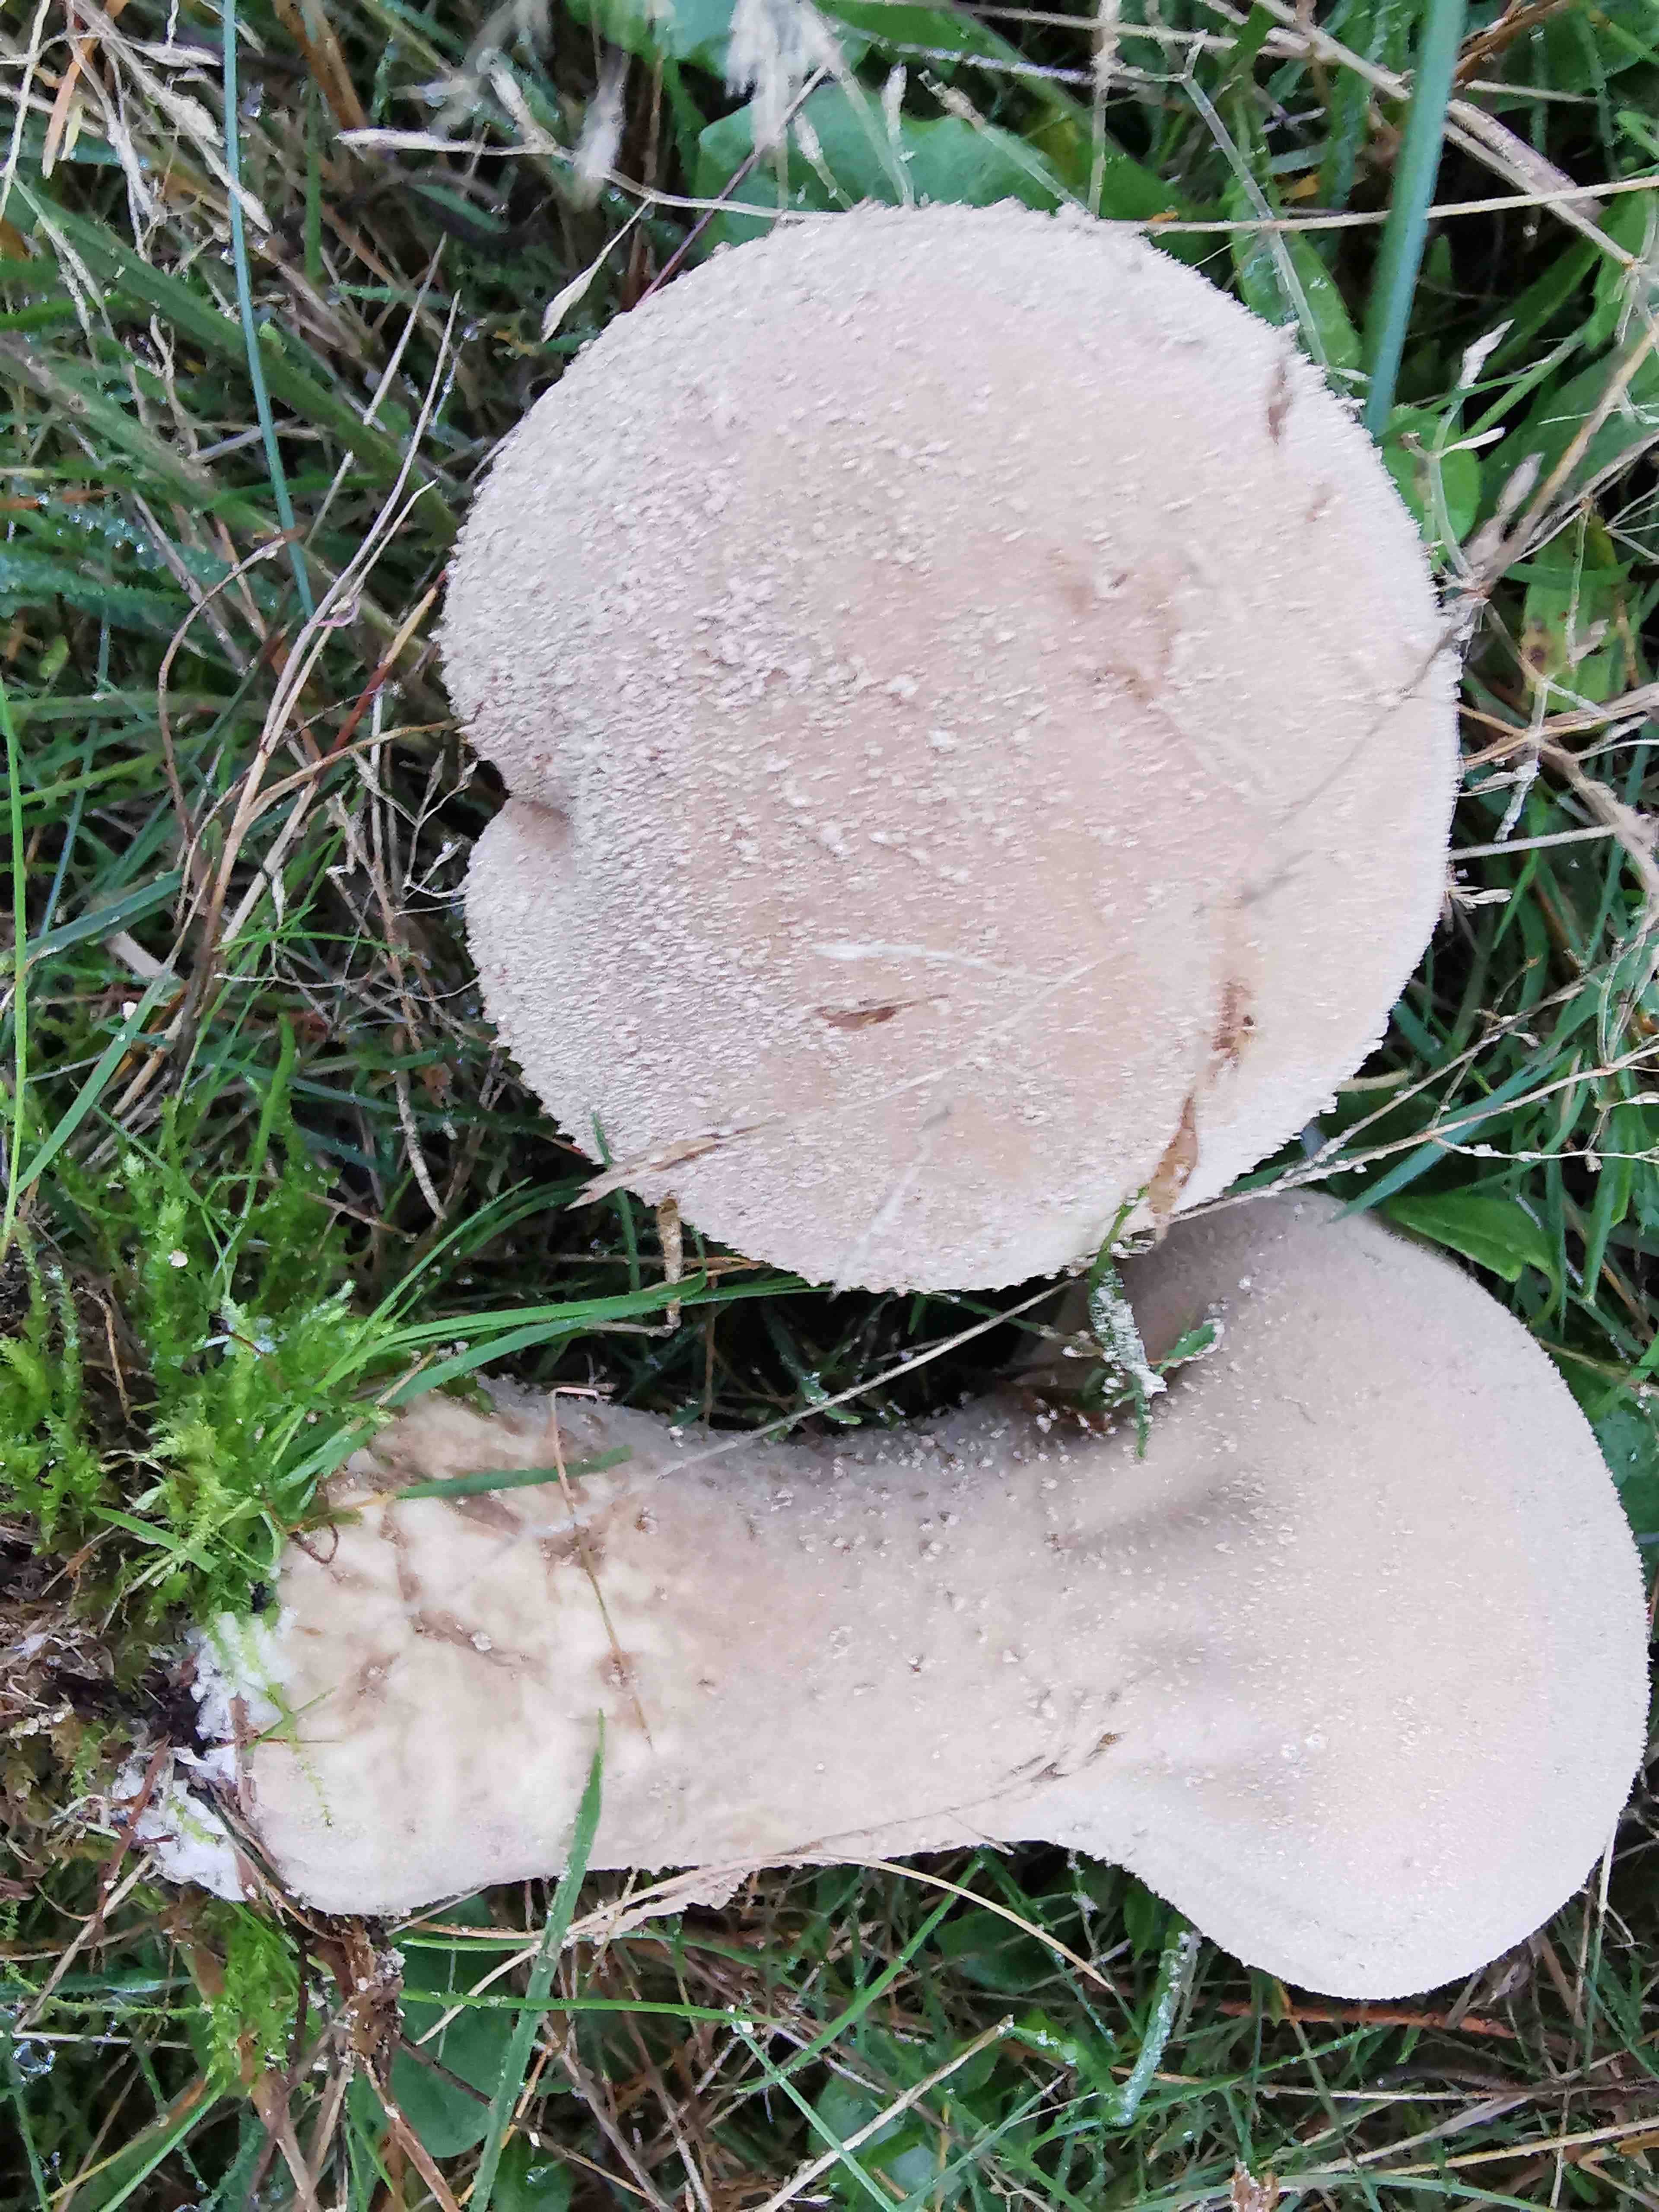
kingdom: Fungi
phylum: Basidiomycota
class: Agaricomycetes
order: Agaricales
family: Lycoperdaceae
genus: Lycoperdon
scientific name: Lycoperdon excipuliforme
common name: højstokket støvbold
